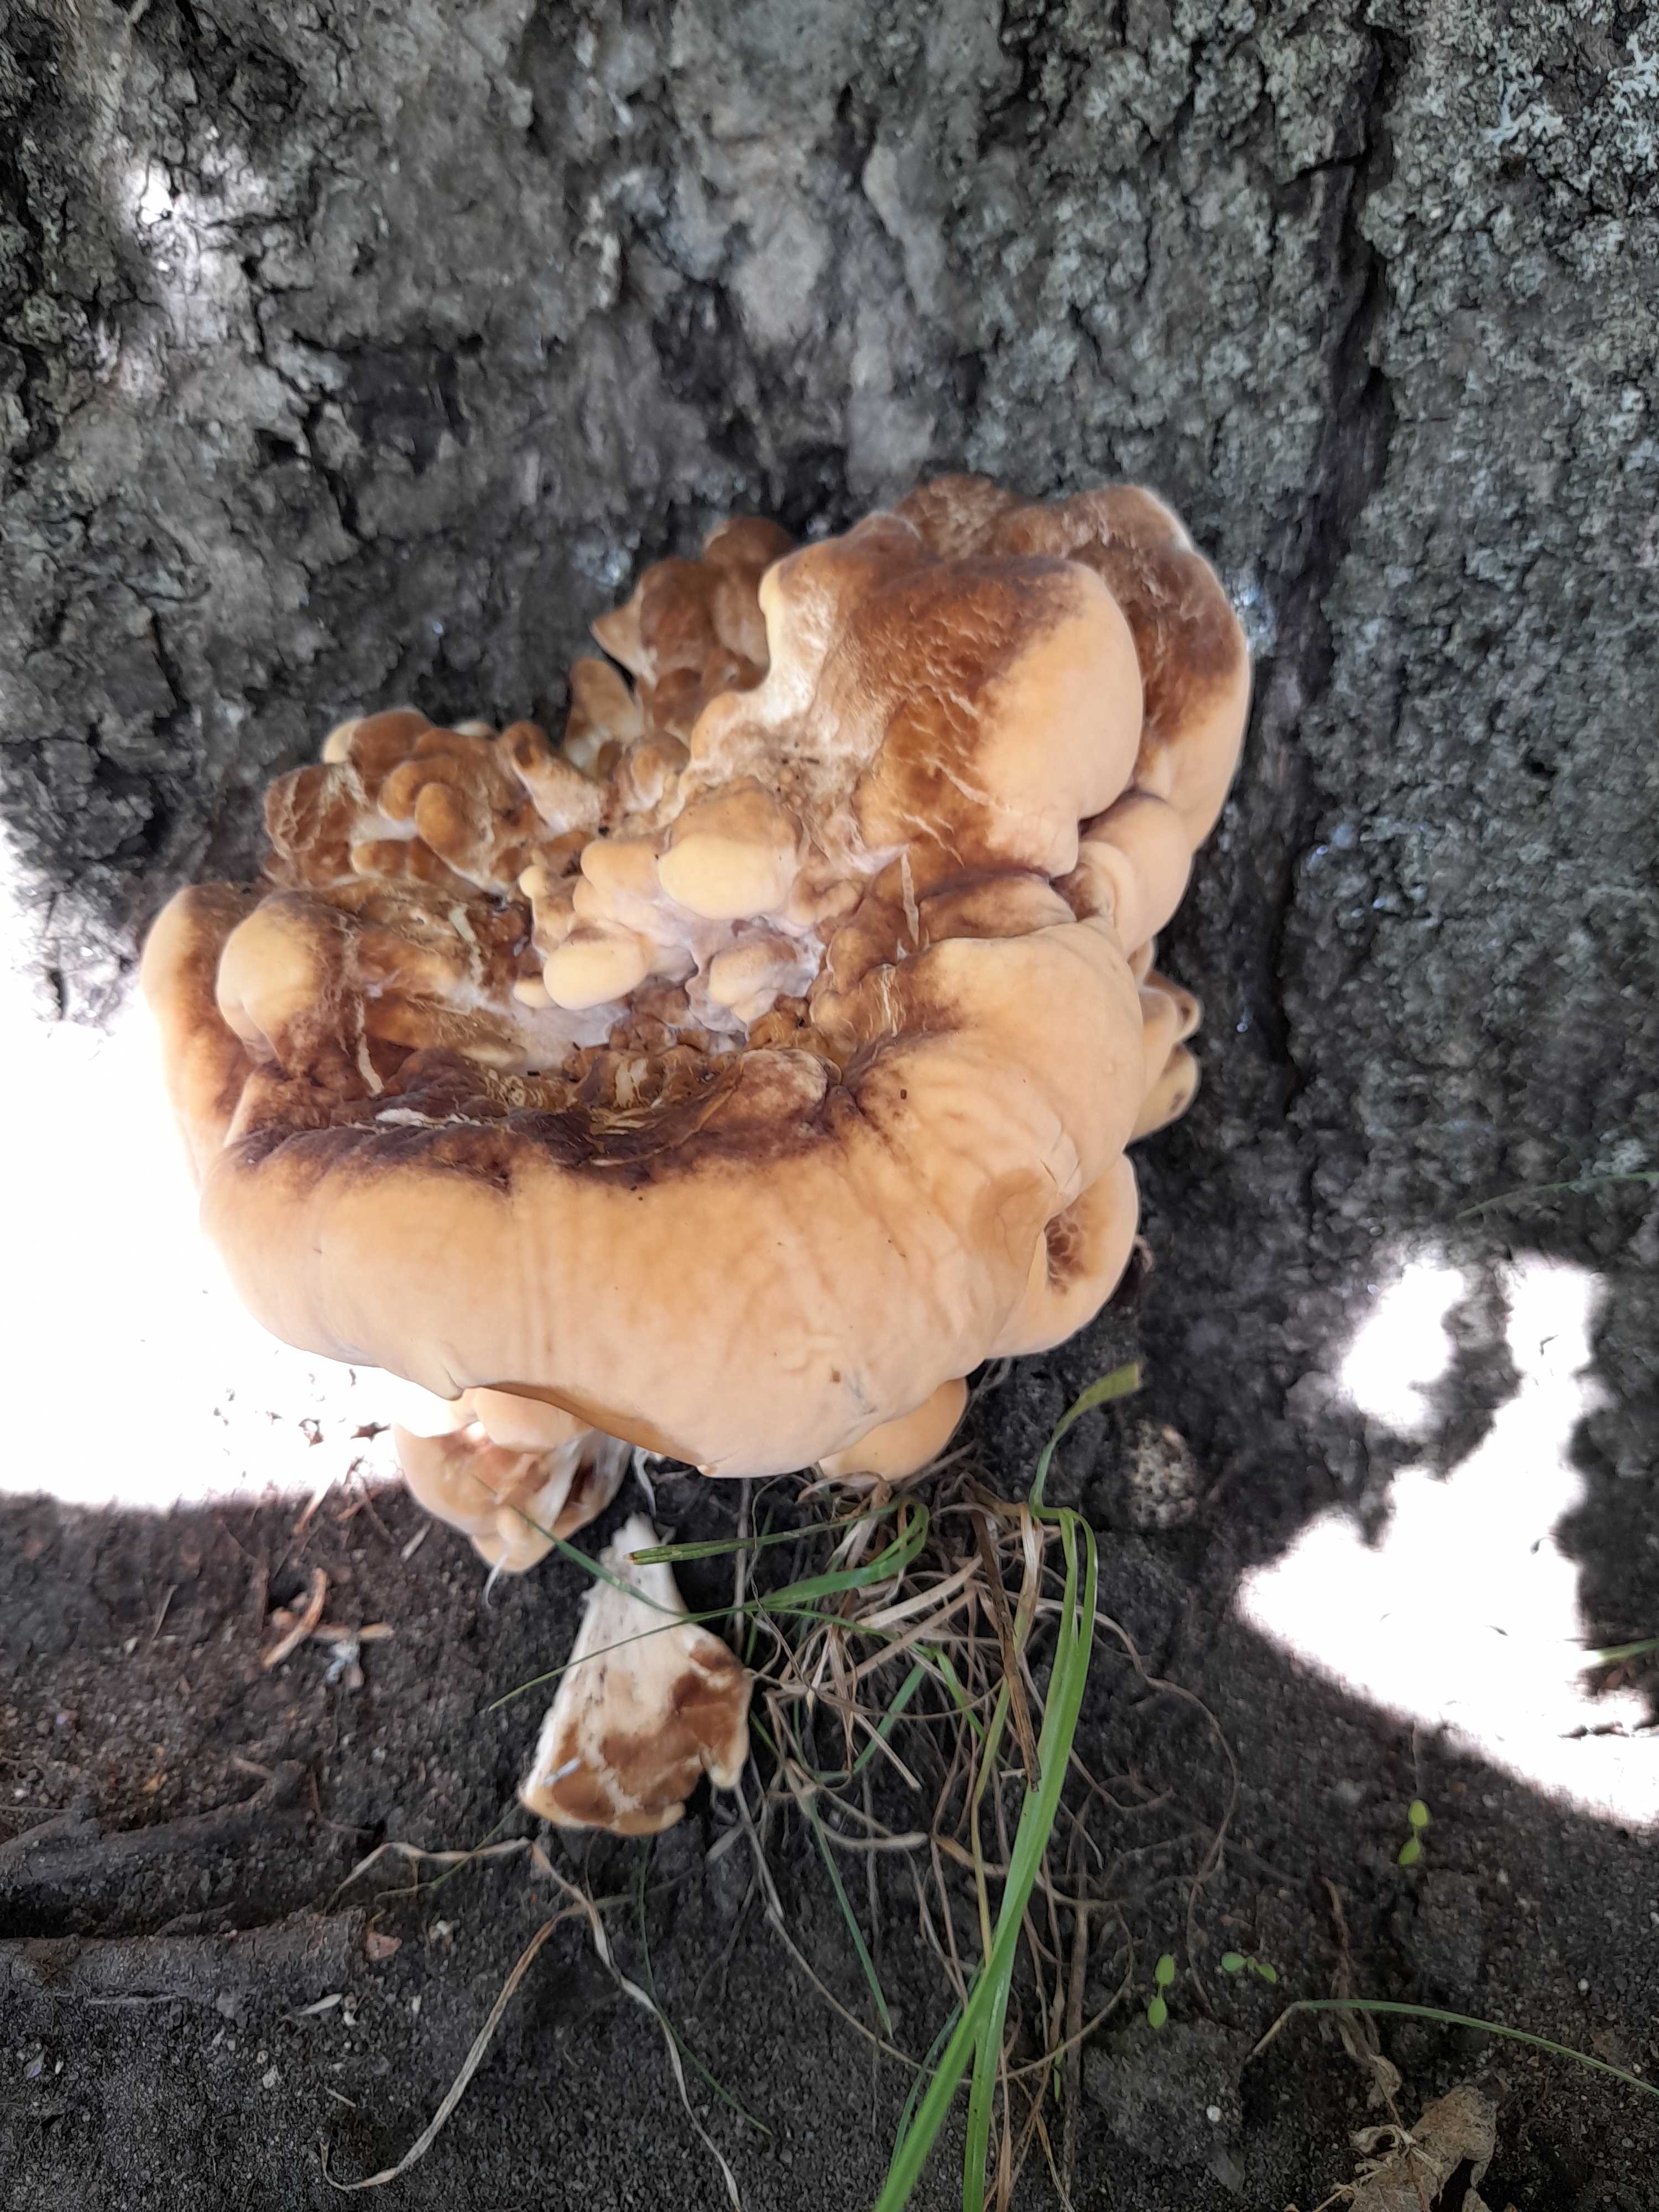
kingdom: Fungi
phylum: Basidiomycota
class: Agaricomycetes
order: Polyporales
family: Meripilaceae
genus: Meripilus
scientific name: Meripilus giganteus
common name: kæmpeporesvamp
